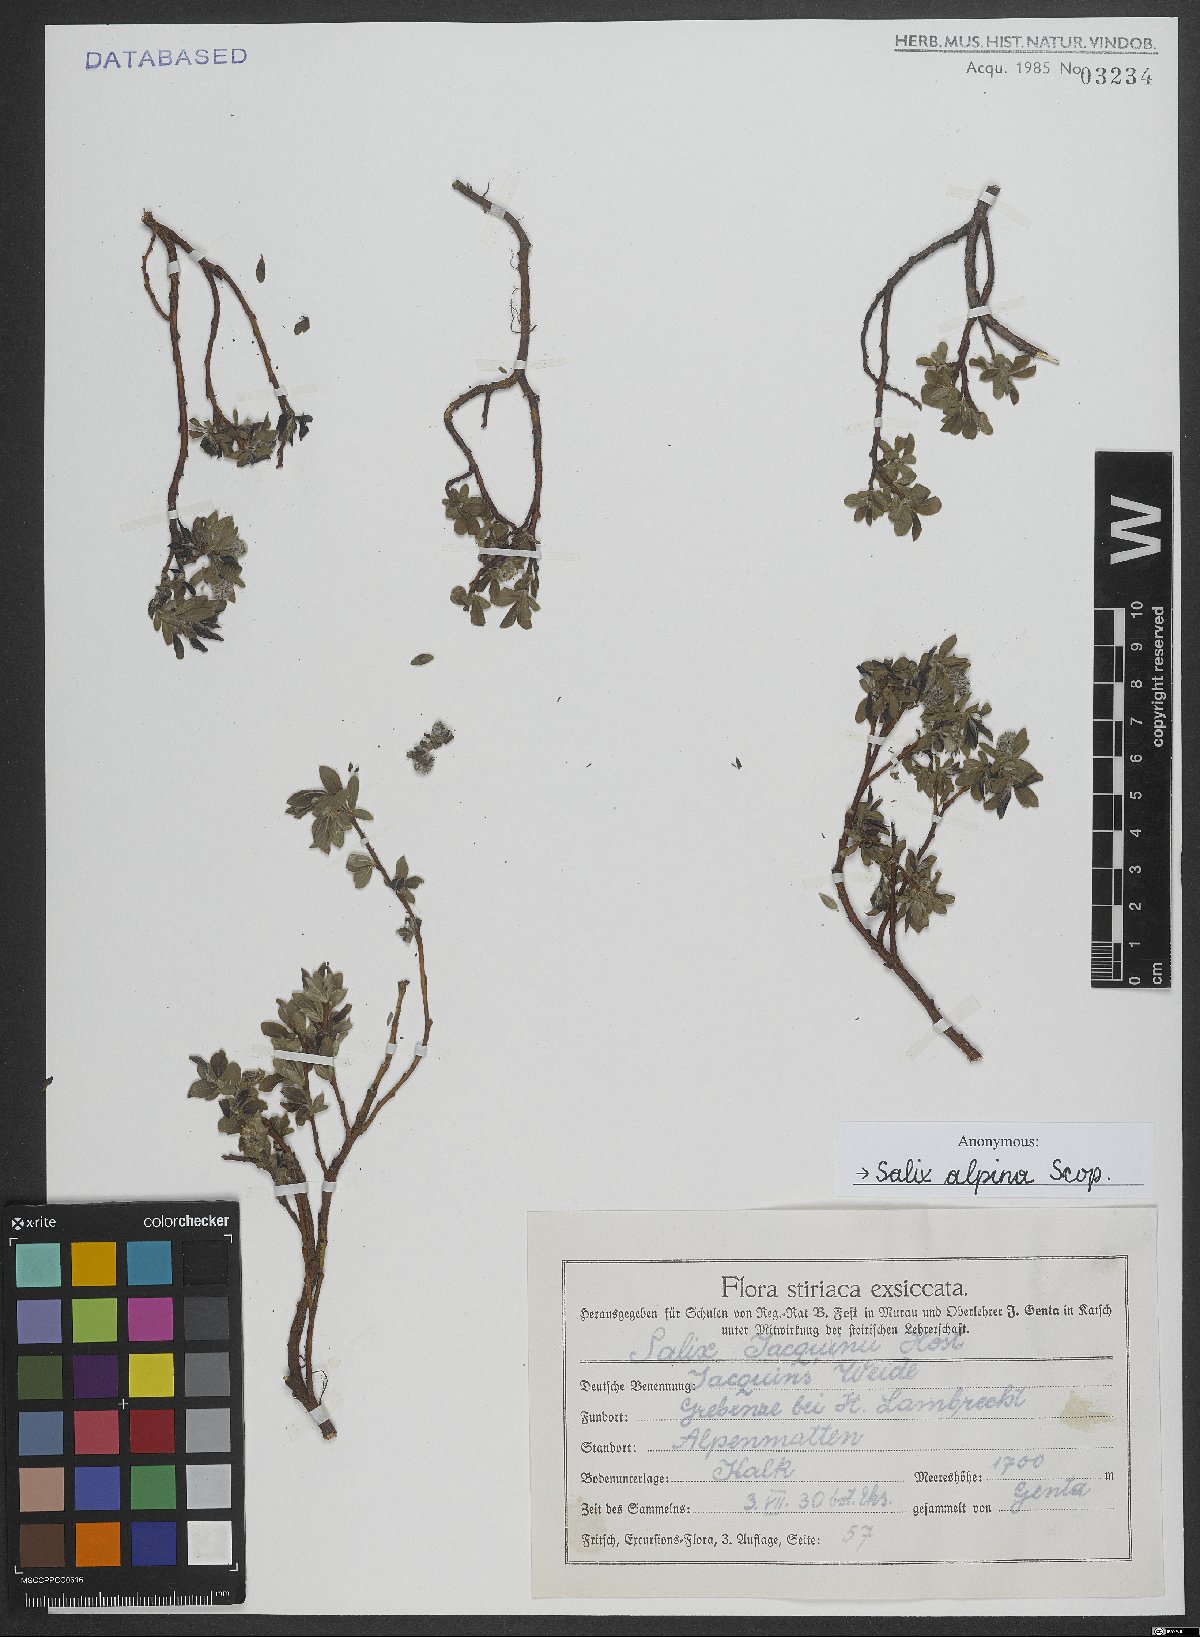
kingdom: Plantae
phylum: Tracheophyta
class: Magnoliopsida
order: Malpighiales
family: Salicaceae
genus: Salix
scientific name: Salix alpina
